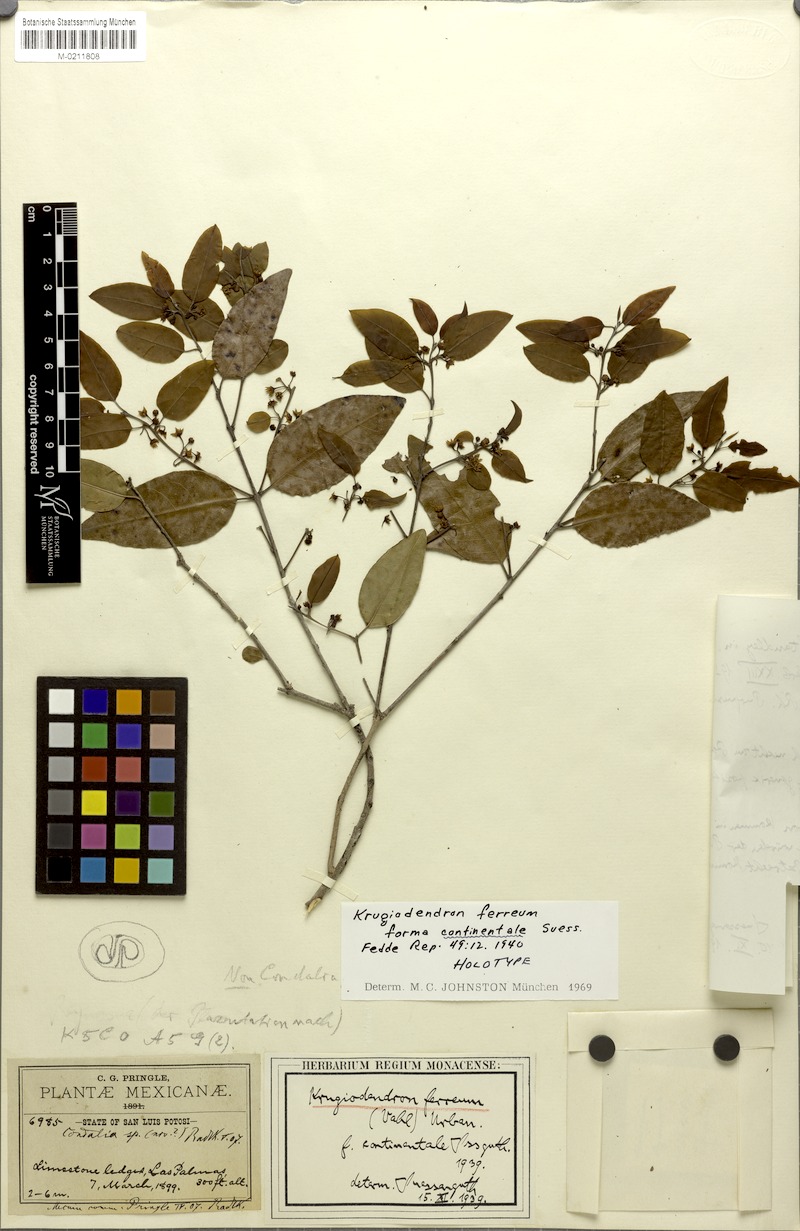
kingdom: Plantae
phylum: Tracheophyta
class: Magnoliopsida
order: Rosales
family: Rhamnaceae
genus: Krugiodendron
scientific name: Krugiodendron ferreum
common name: Iron wood
